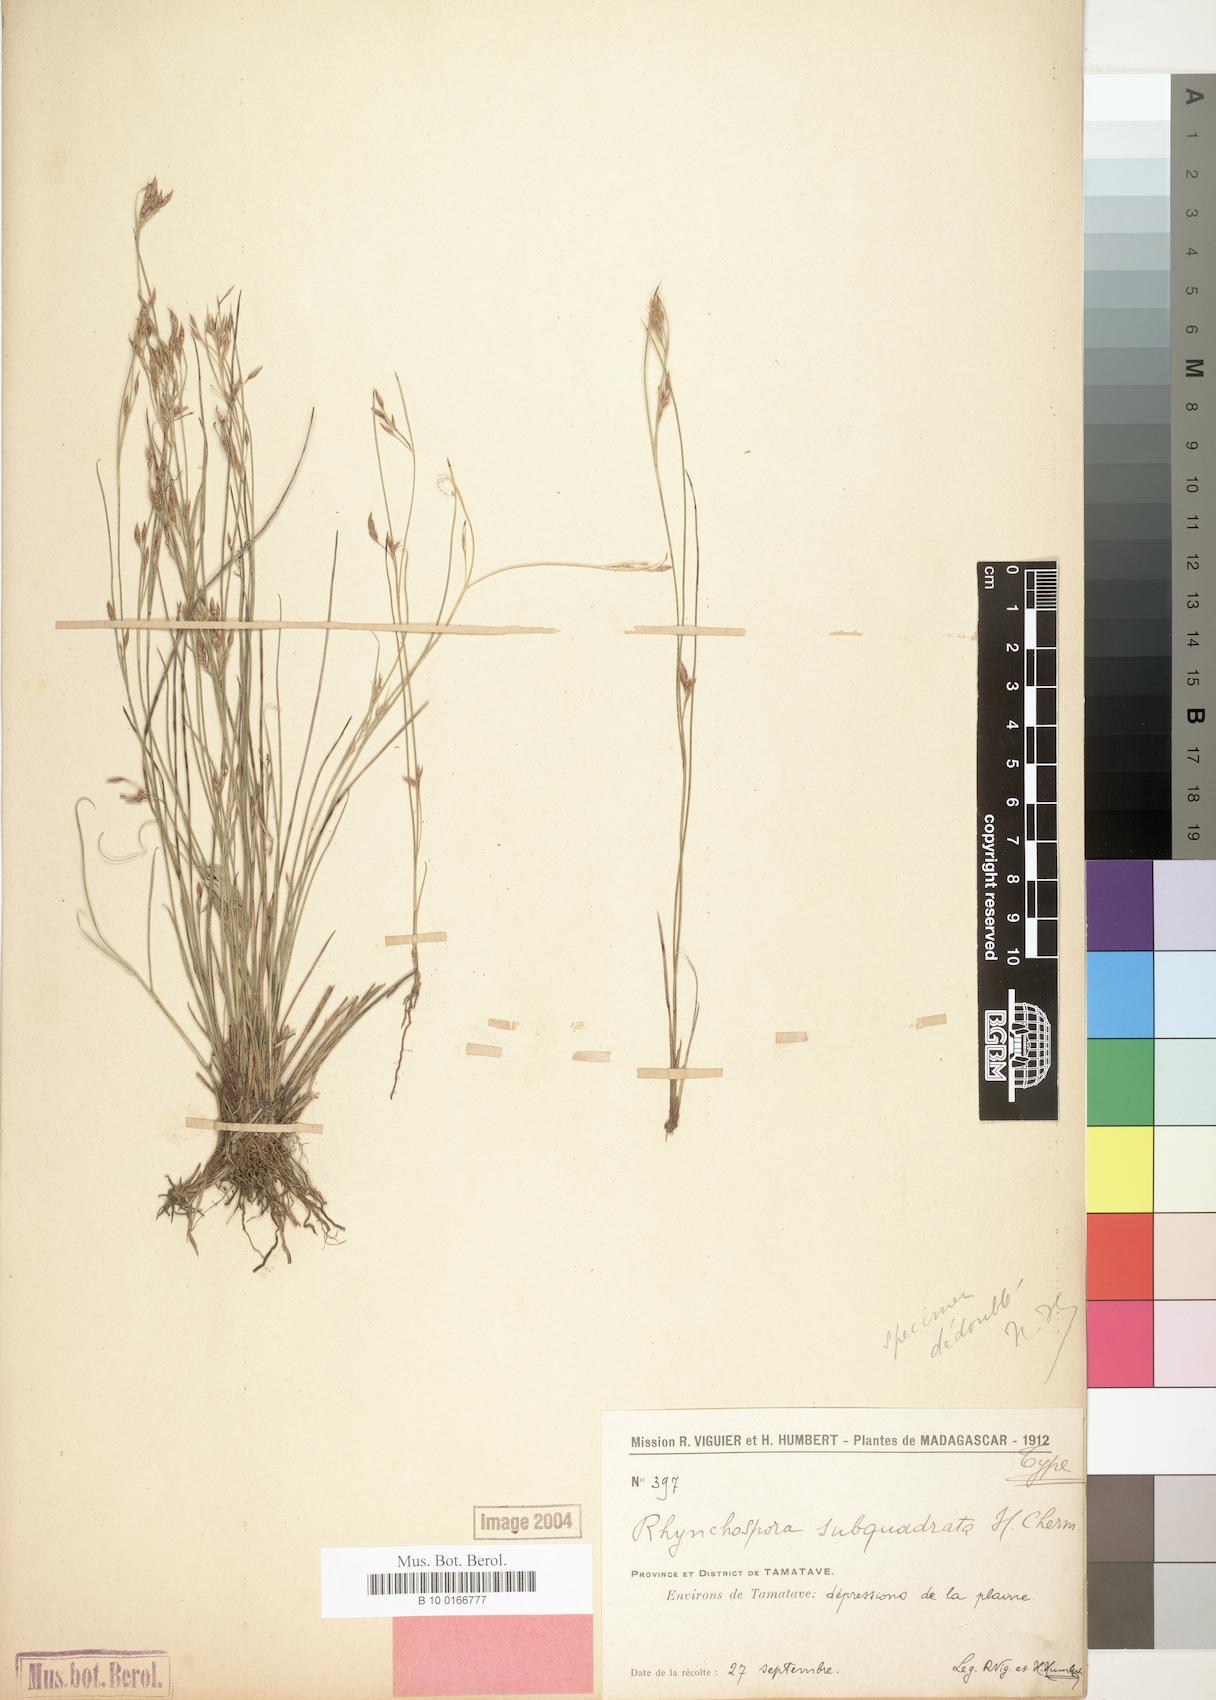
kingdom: Plantae
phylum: Tracheophyta
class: Liliopsida
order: Poales
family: Cyperaceae
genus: Rhynchospora
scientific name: Rhynchospora gracillima
